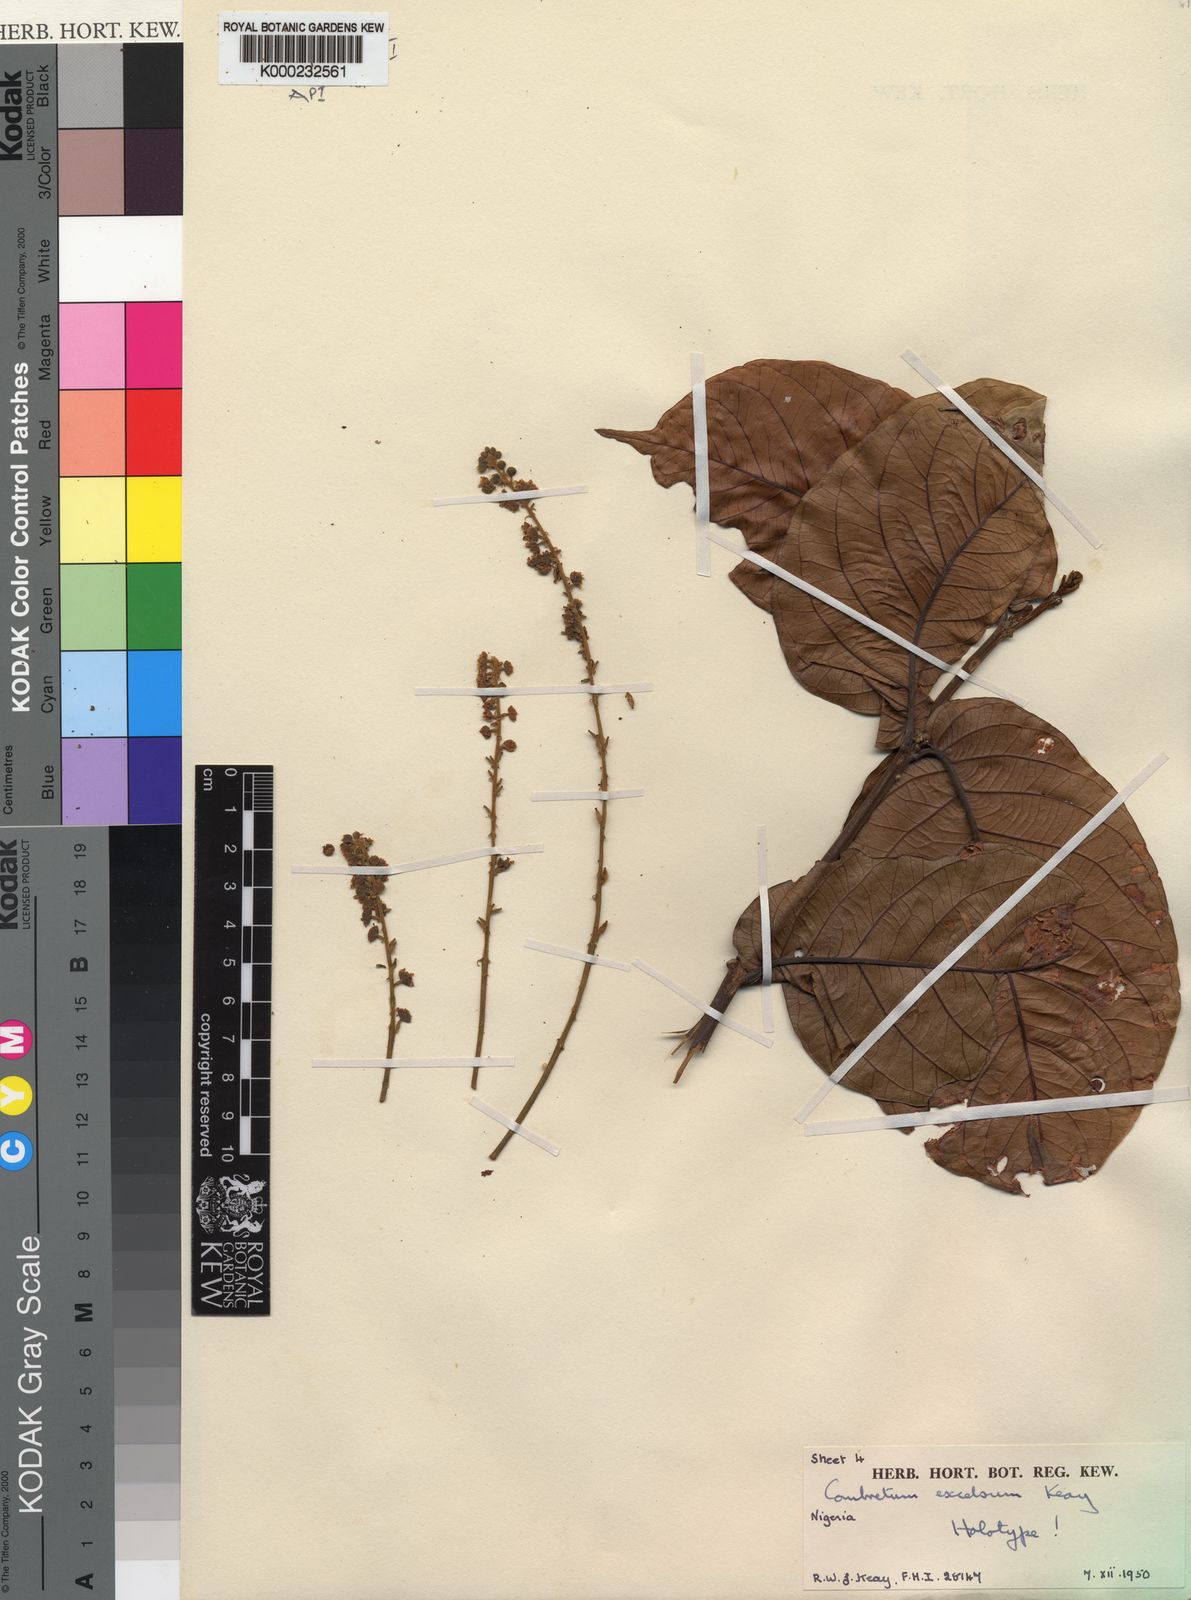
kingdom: Plantae
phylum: Tracheophyta
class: Magnoliopsida
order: Myrtales
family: Combretaceae
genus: Combretum
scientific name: Combretum pecoense
